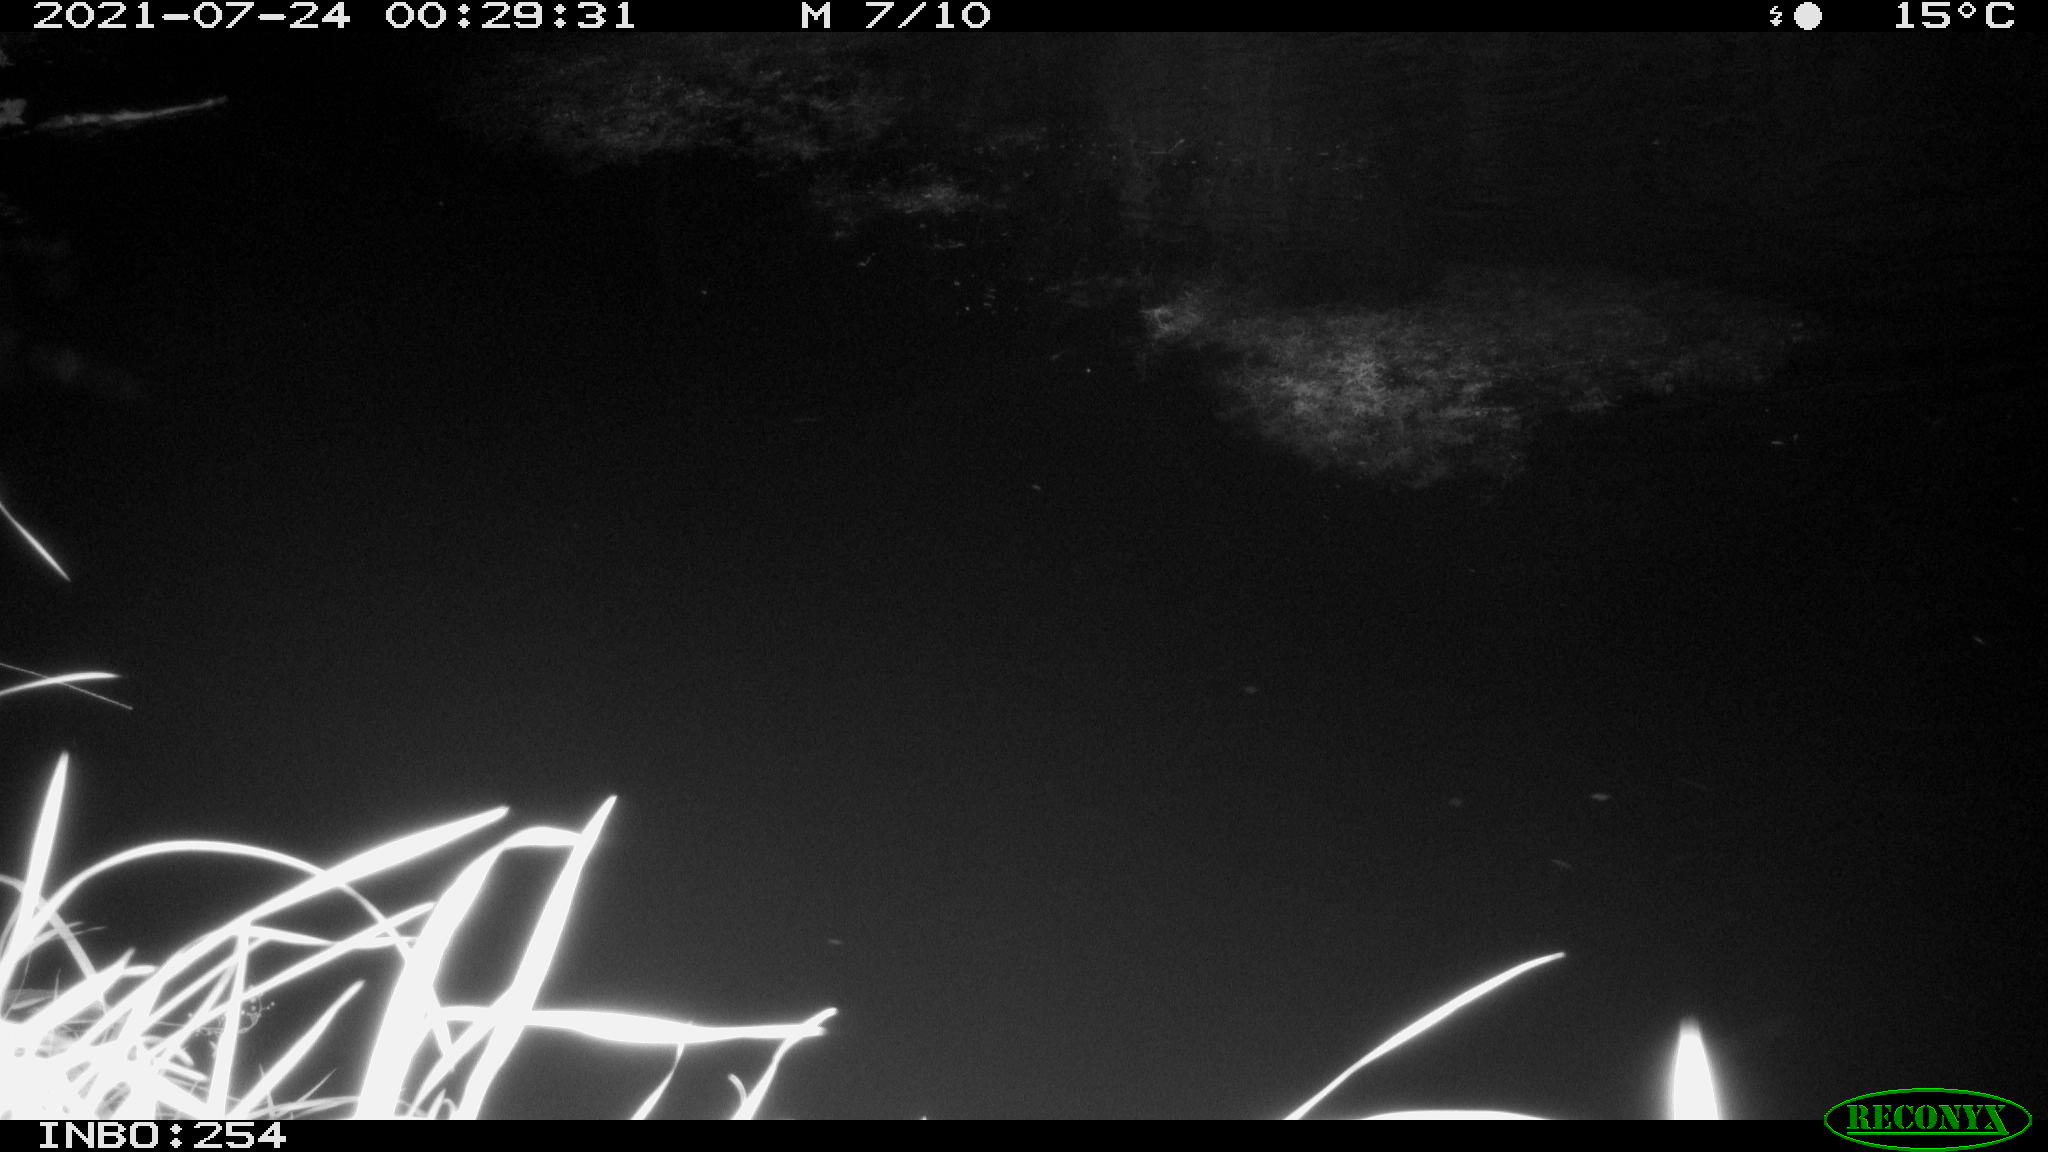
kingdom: Animalia
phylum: Chordata
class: Aves
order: Anseriformes
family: Anatidae
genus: Anas
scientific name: Anas platyrhynchos
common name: Mallard
